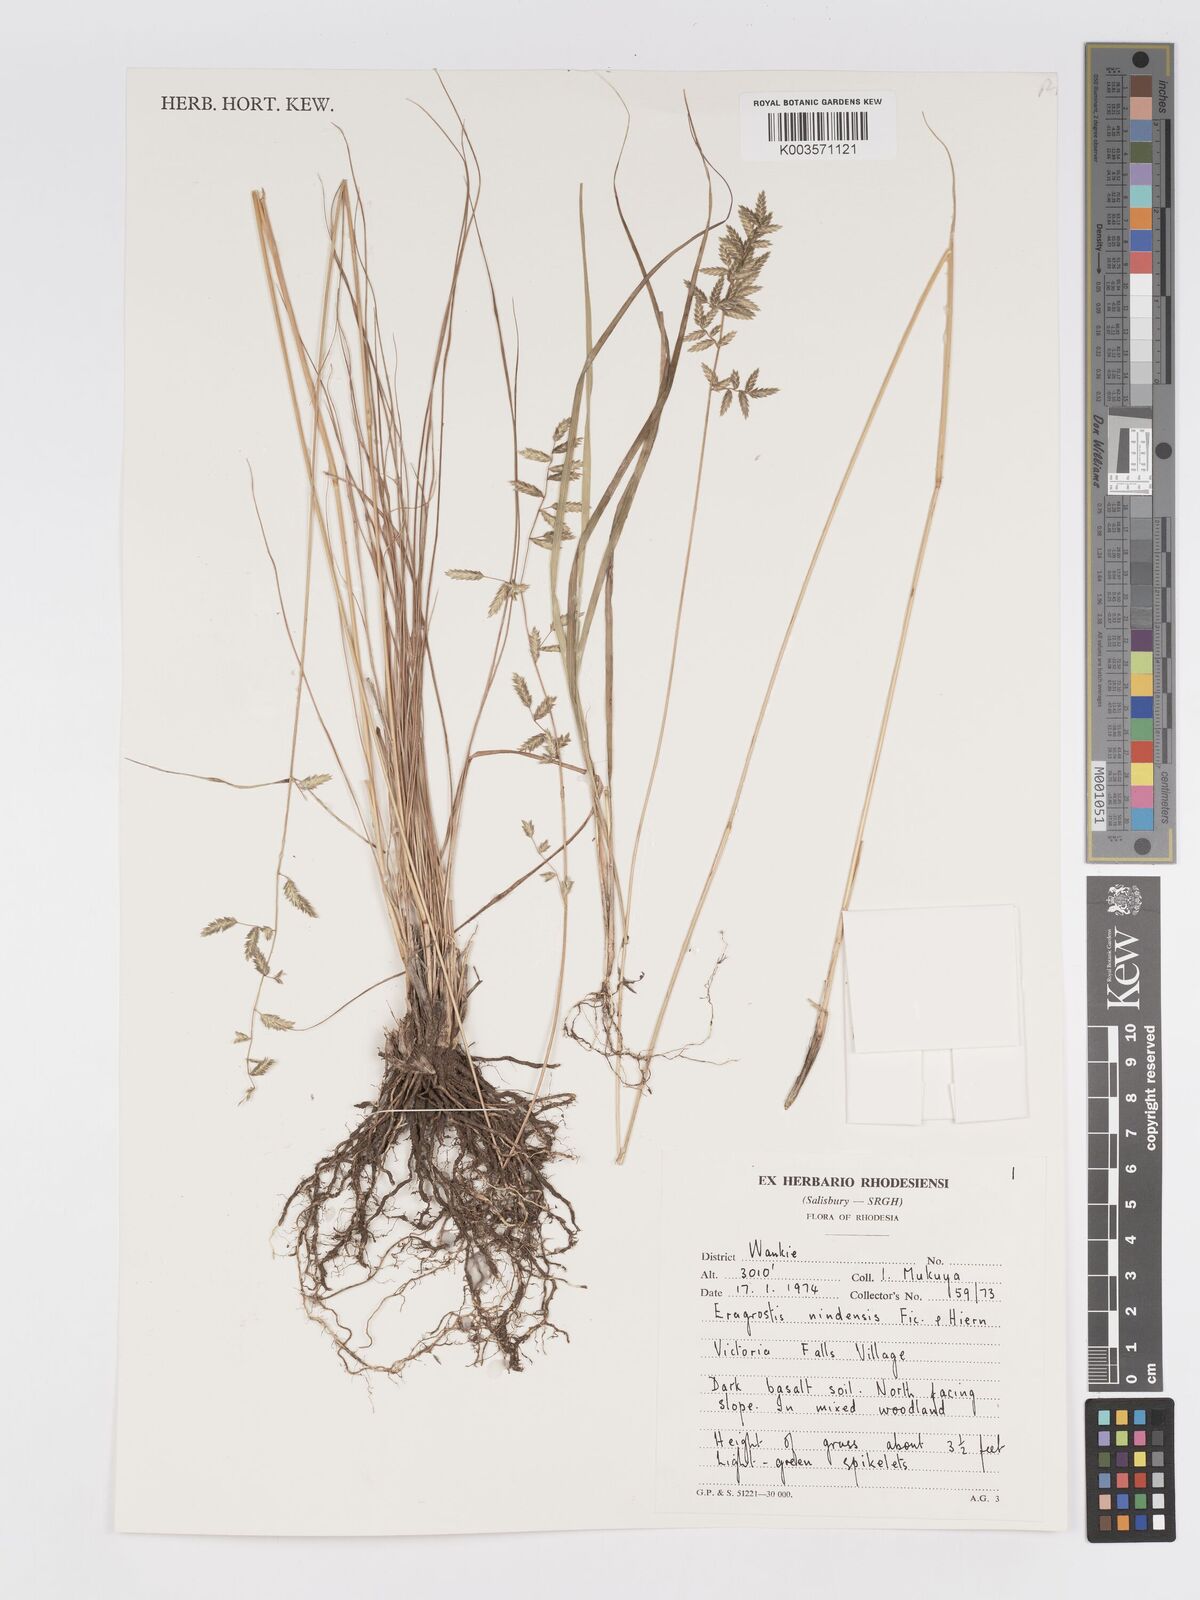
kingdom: Plantae
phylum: Tracheophyta
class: Liliopsida
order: Poales
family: Poaceae
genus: Eragrostis
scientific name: Eragrostis nindensis
